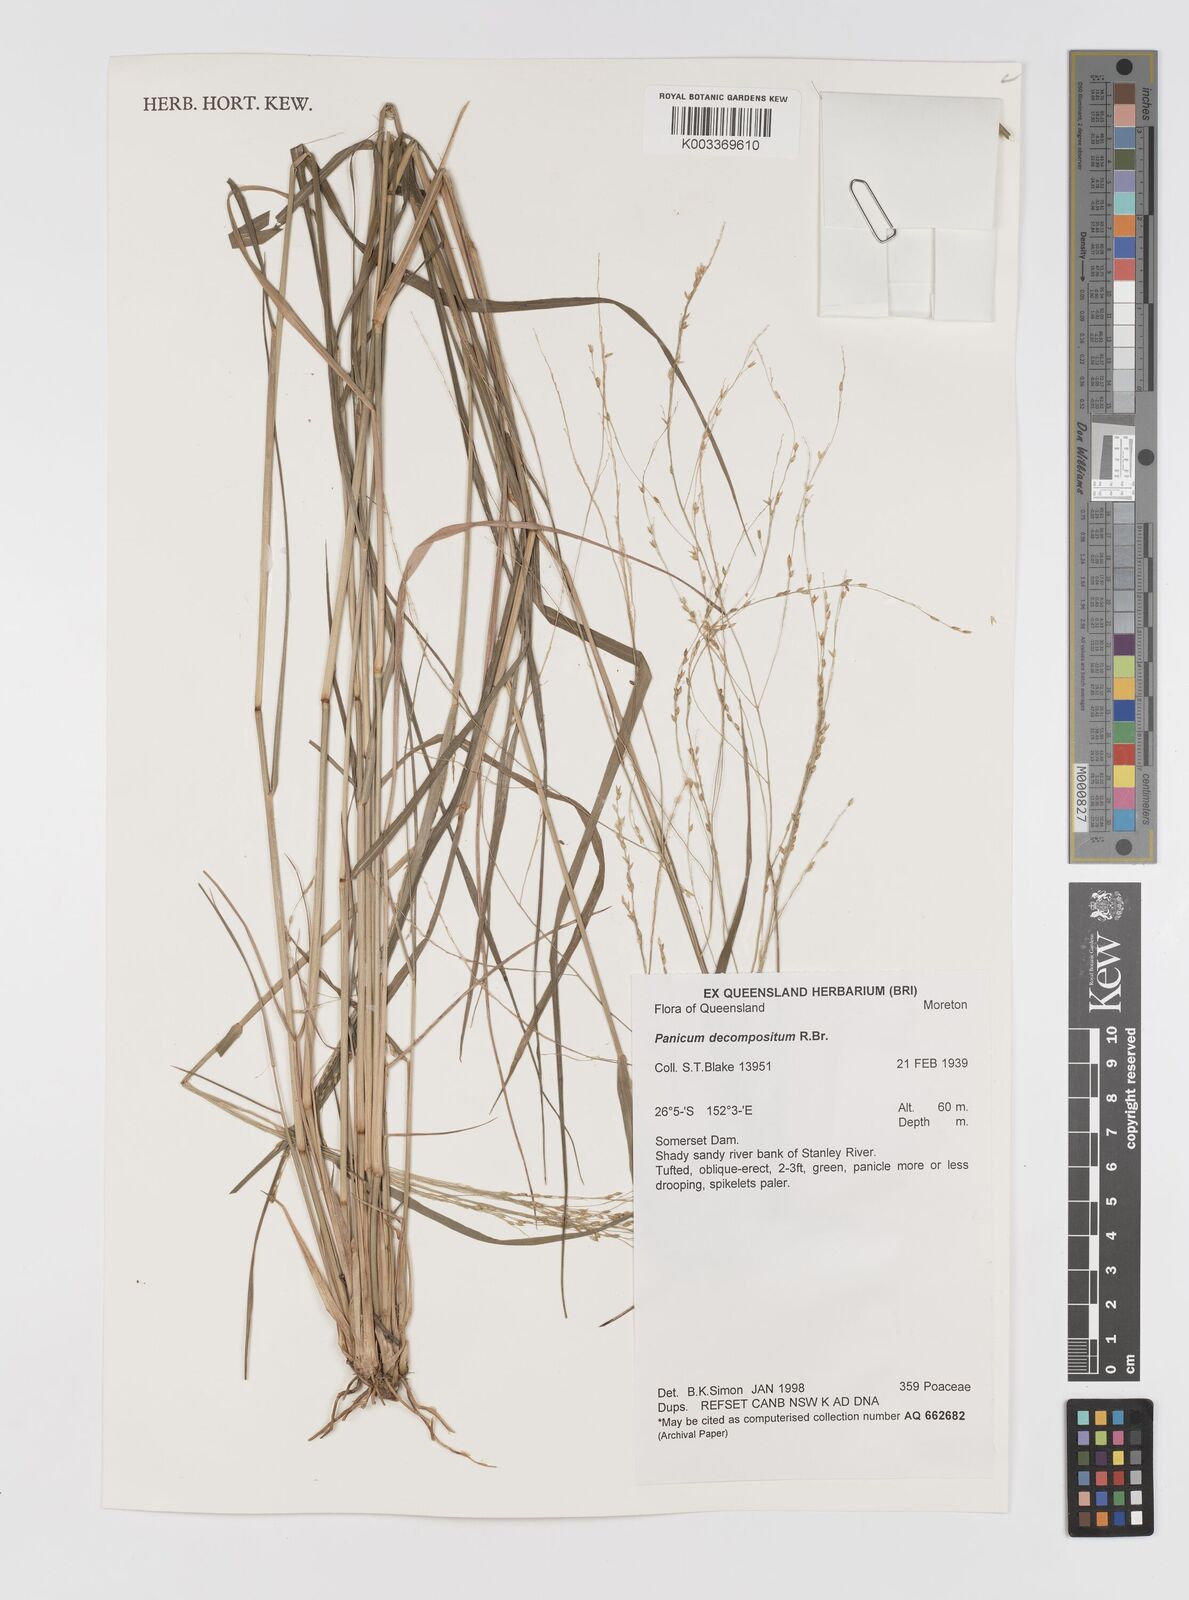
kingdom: Plantae
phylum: Tracheophyta
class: Liliopsida
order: Poales
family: Poaceae
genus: Panicum
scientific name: Panicum decompositum
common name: Australian millet
